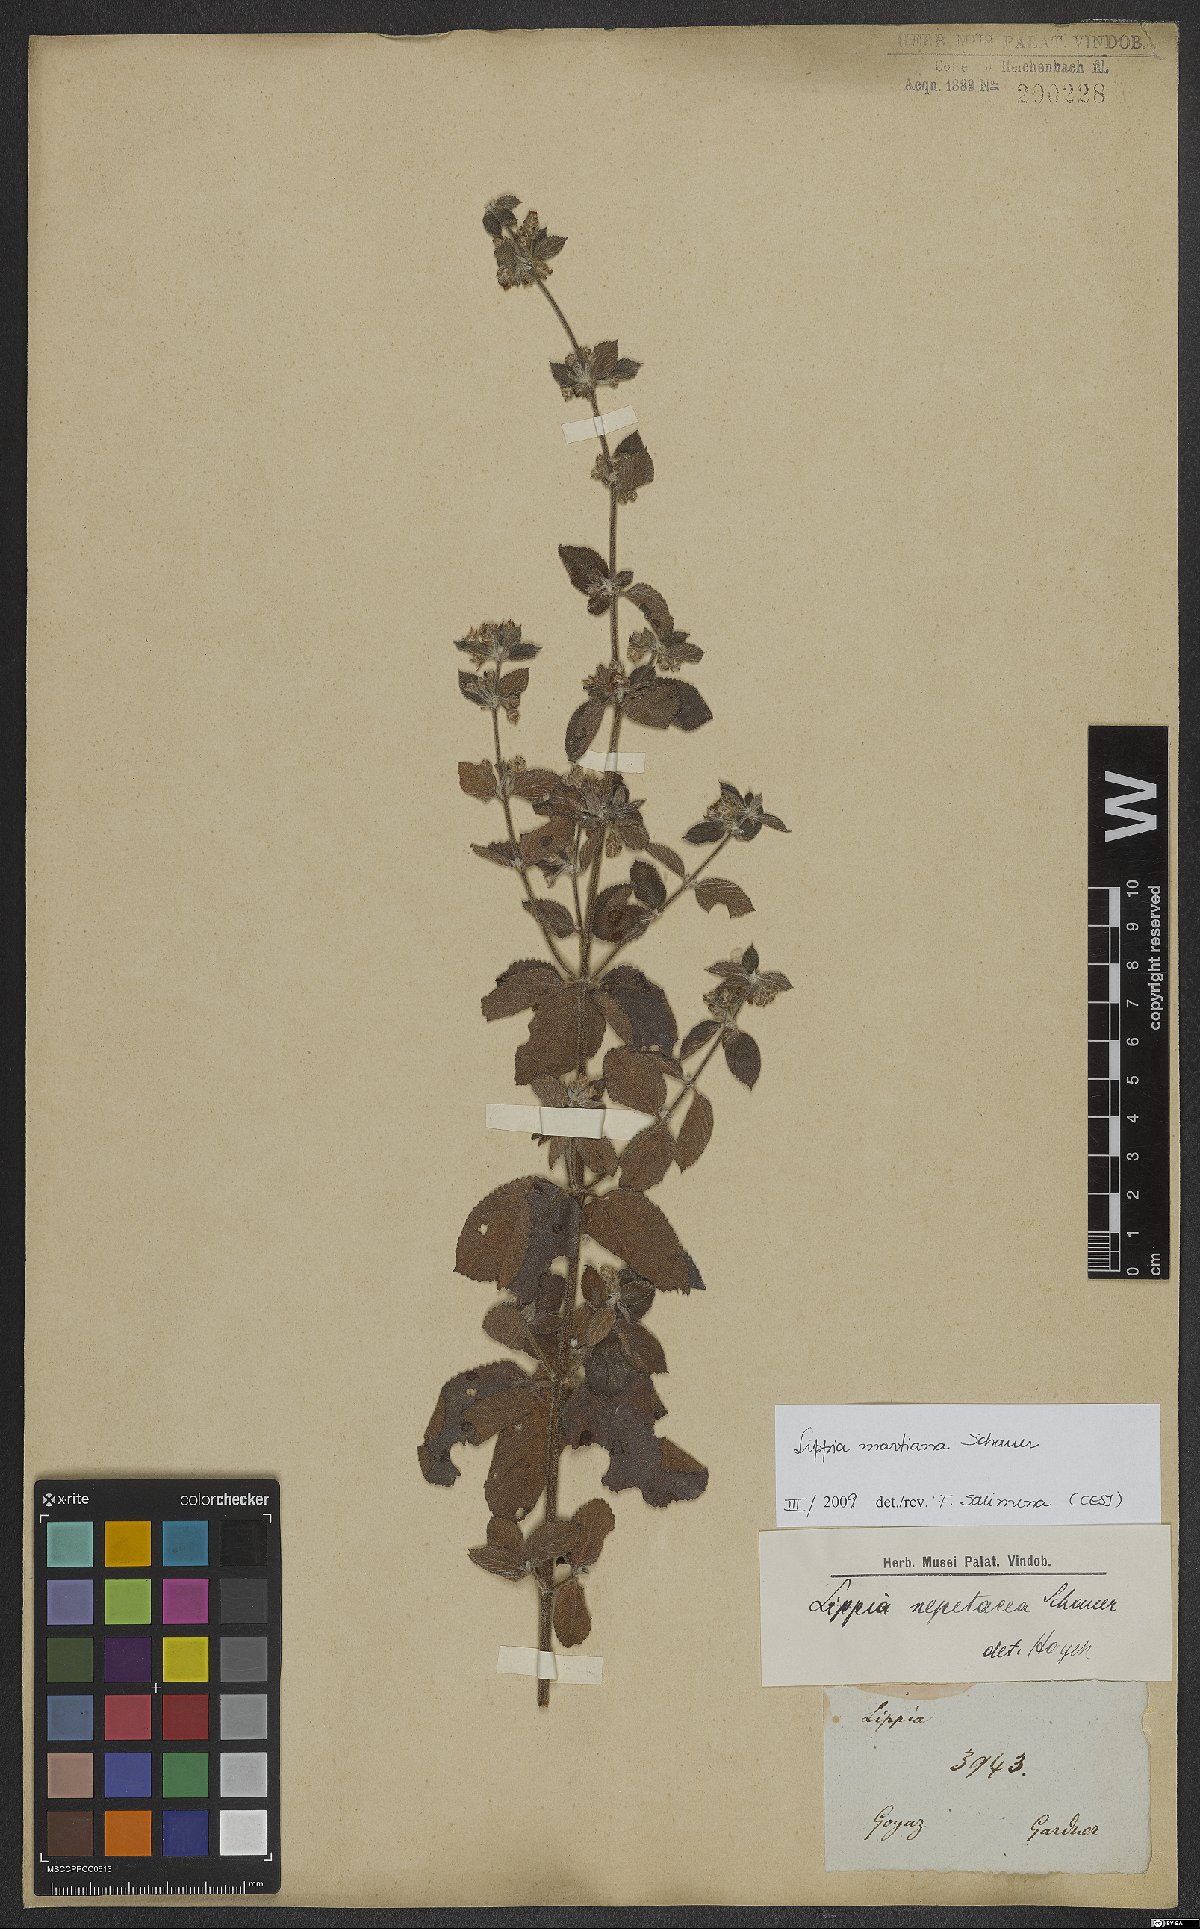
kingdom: Plantae
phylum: Tracheophyta
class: Magnoliopsida
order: Lamiales
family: Verbenaceae
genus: Lippia
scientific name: Lippia martiana
